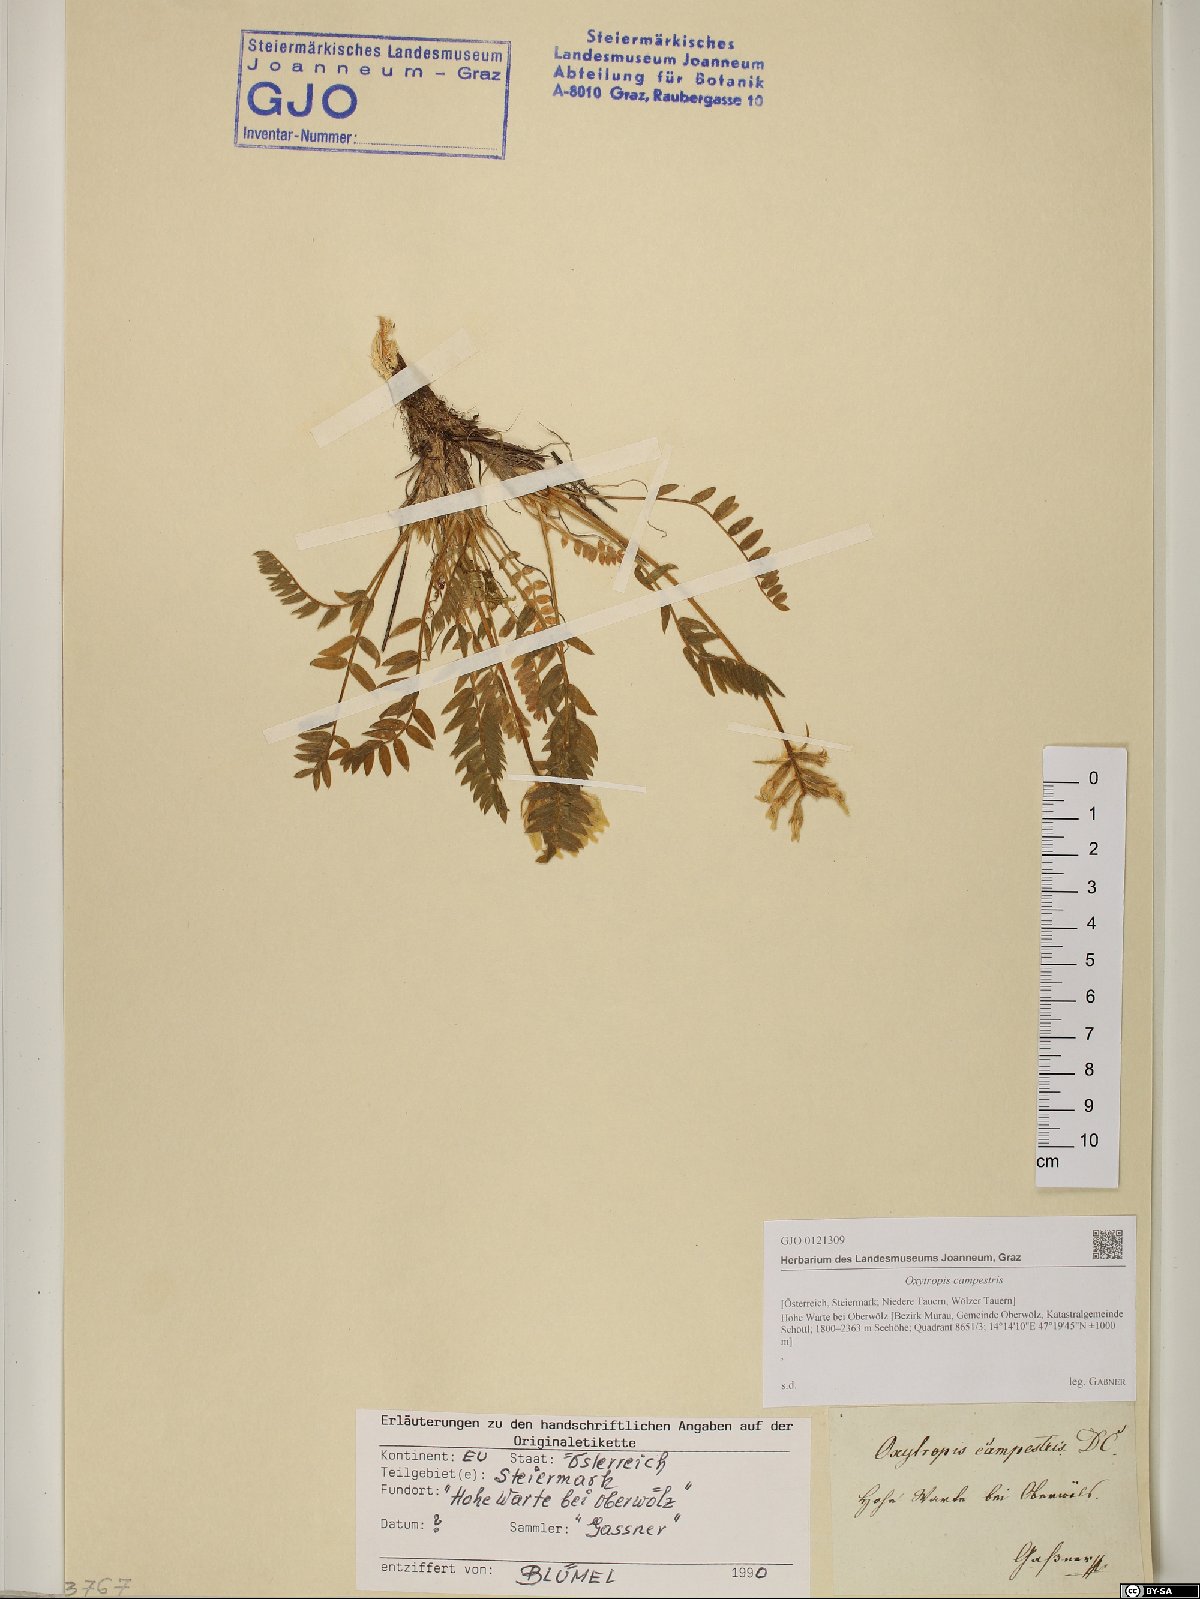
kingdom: Plantae
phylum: Tracheophyta
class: Magnoliopsida
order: Fabales
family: Fabaceae
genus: Oxytropis
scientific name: Oxytropis campestris
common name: Field locoweed
